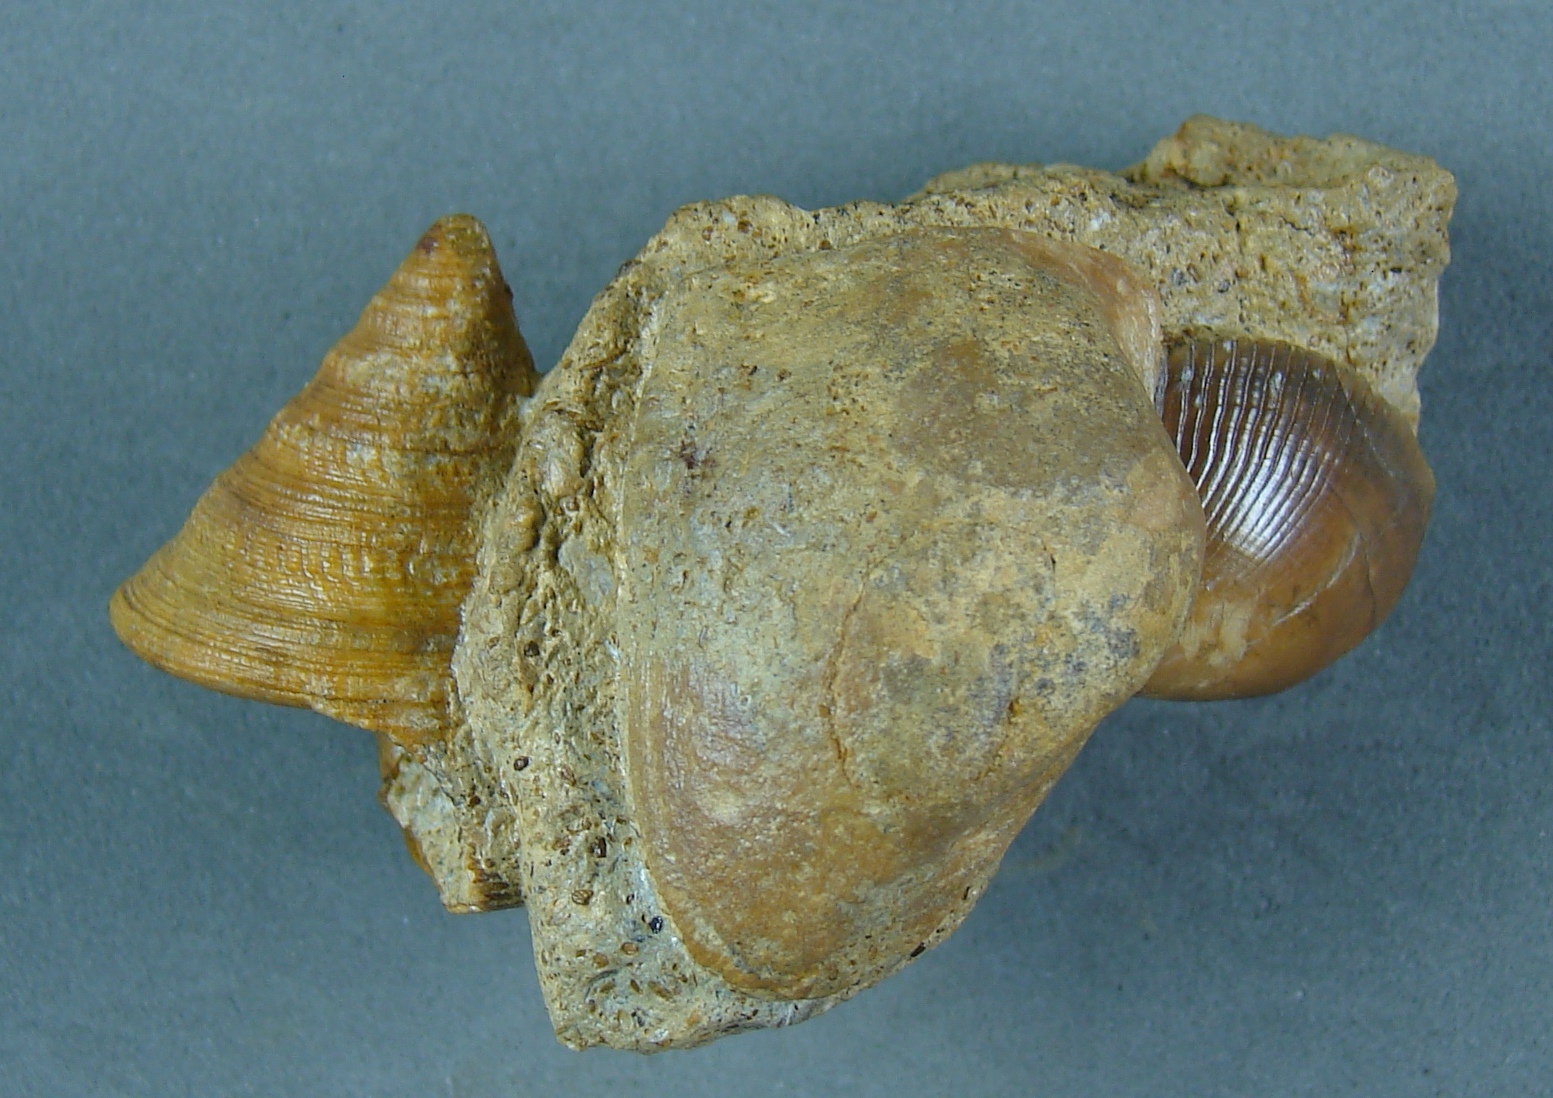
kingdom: Animalia
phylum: Mollusca
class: Gastropoda
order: Pleurotomariida
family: Pleurotomariidae
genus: Pyrgotrochus
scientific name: Pyrgotrochus elongatus
